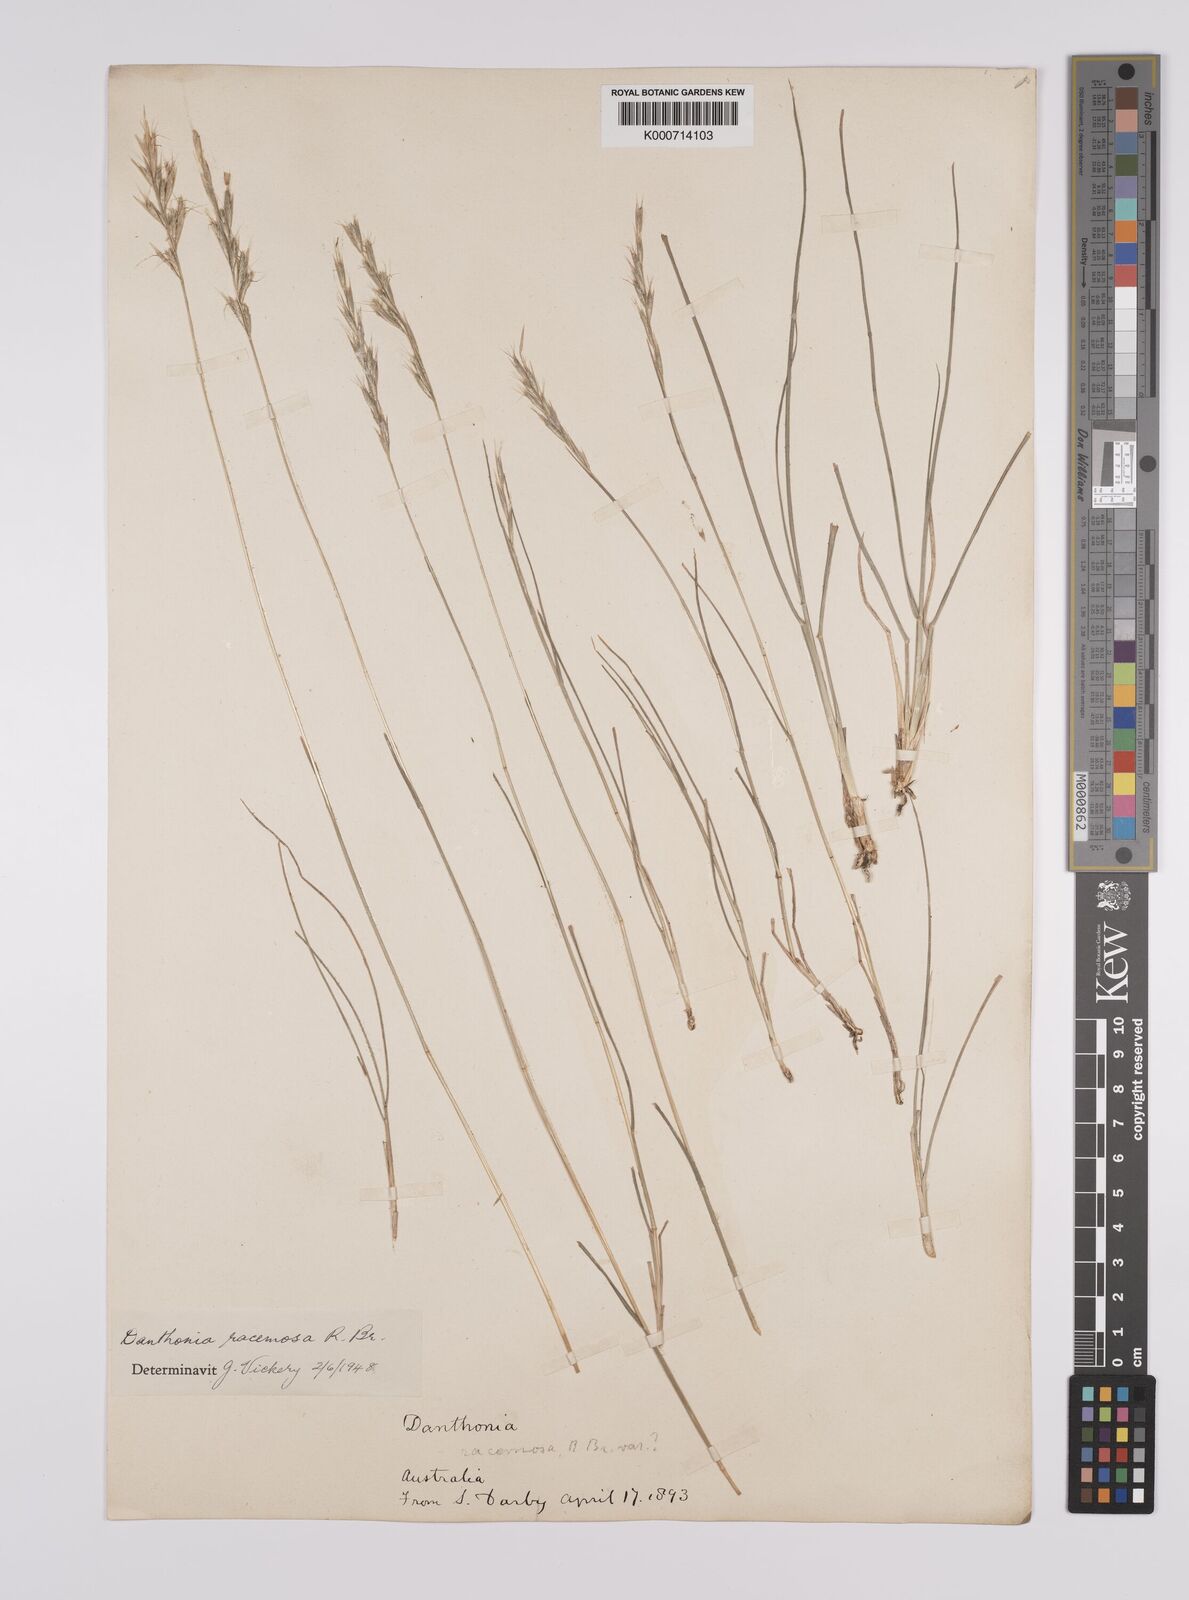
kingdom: Plantae
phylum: Tracheophyta
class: Liliopsida
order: Poales
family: Poaceae
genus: Rytidosperma
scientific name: Rytidosperma racemosum
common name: Wallaby-grass
